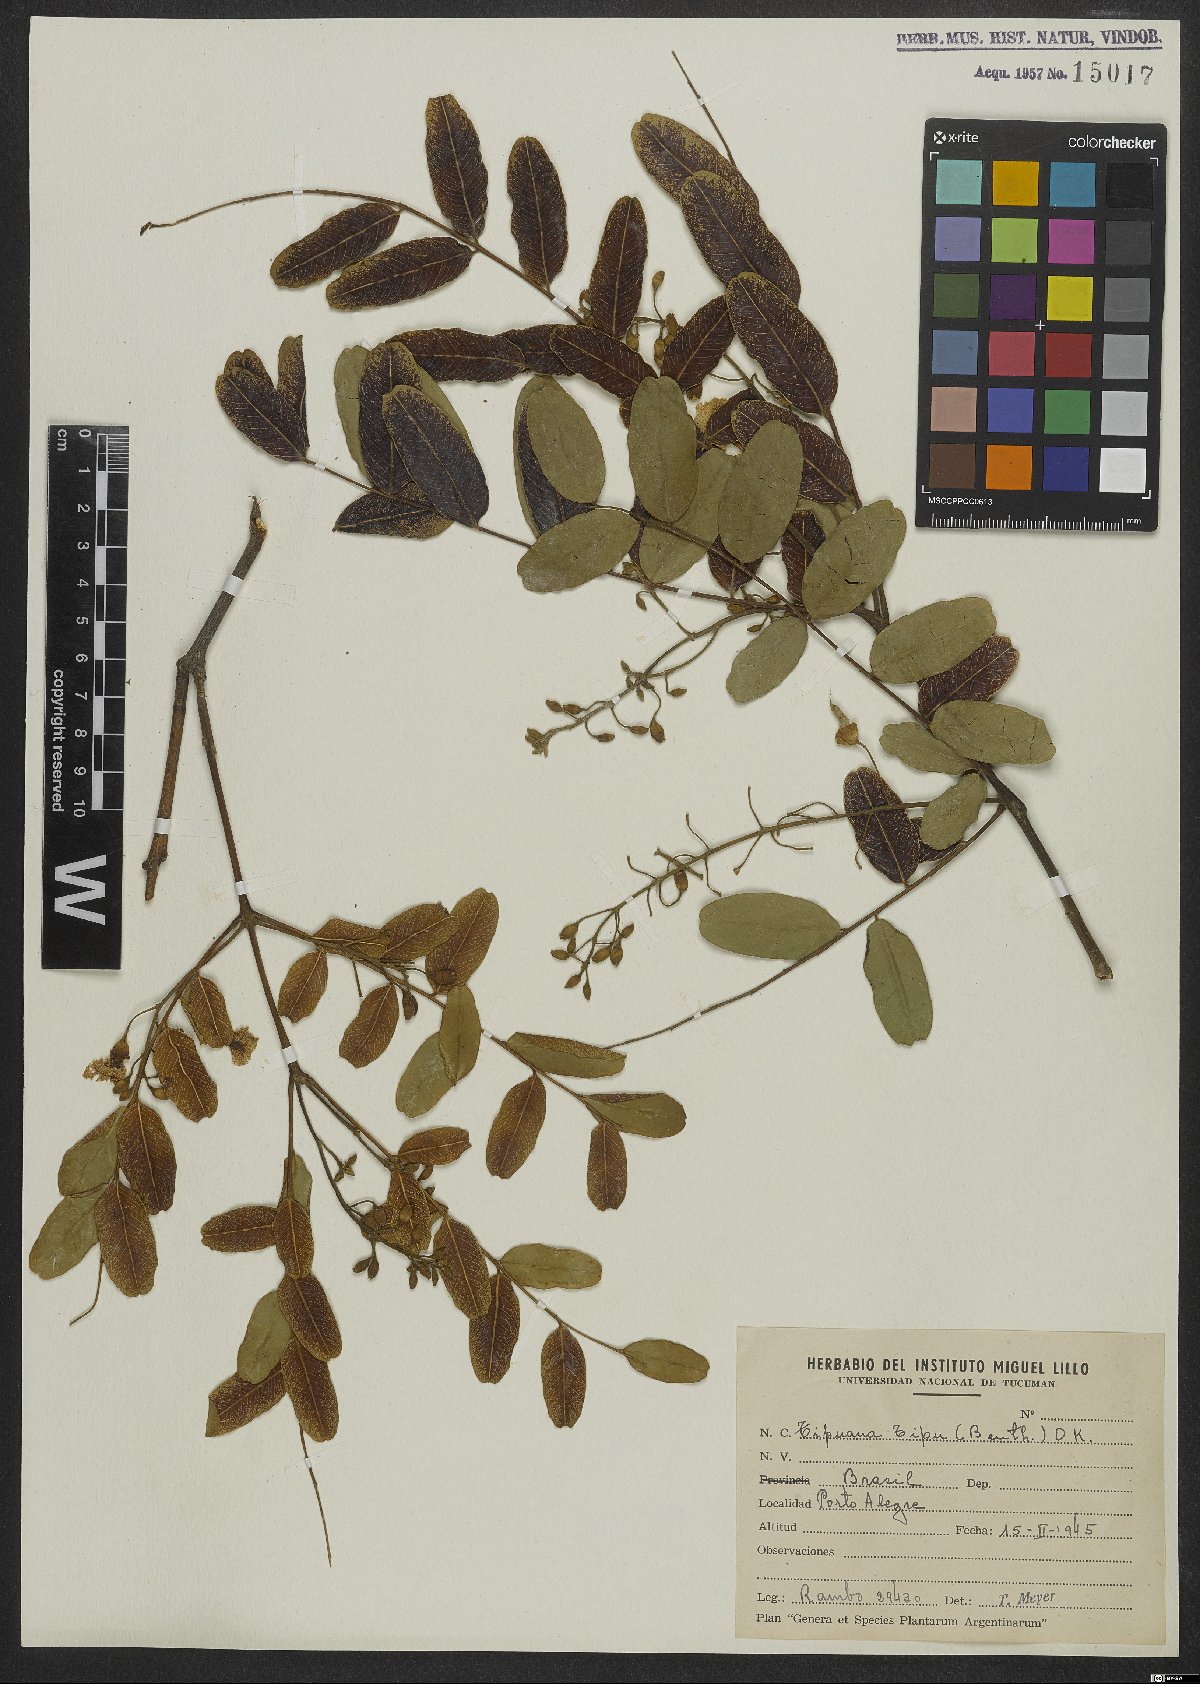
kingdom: Plantae
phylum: Tracheophyta
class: Magnoliopsida
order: Fabales
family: Fabaceae
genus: Tipuana
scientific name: Tipuana tipu
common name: Tiputree
